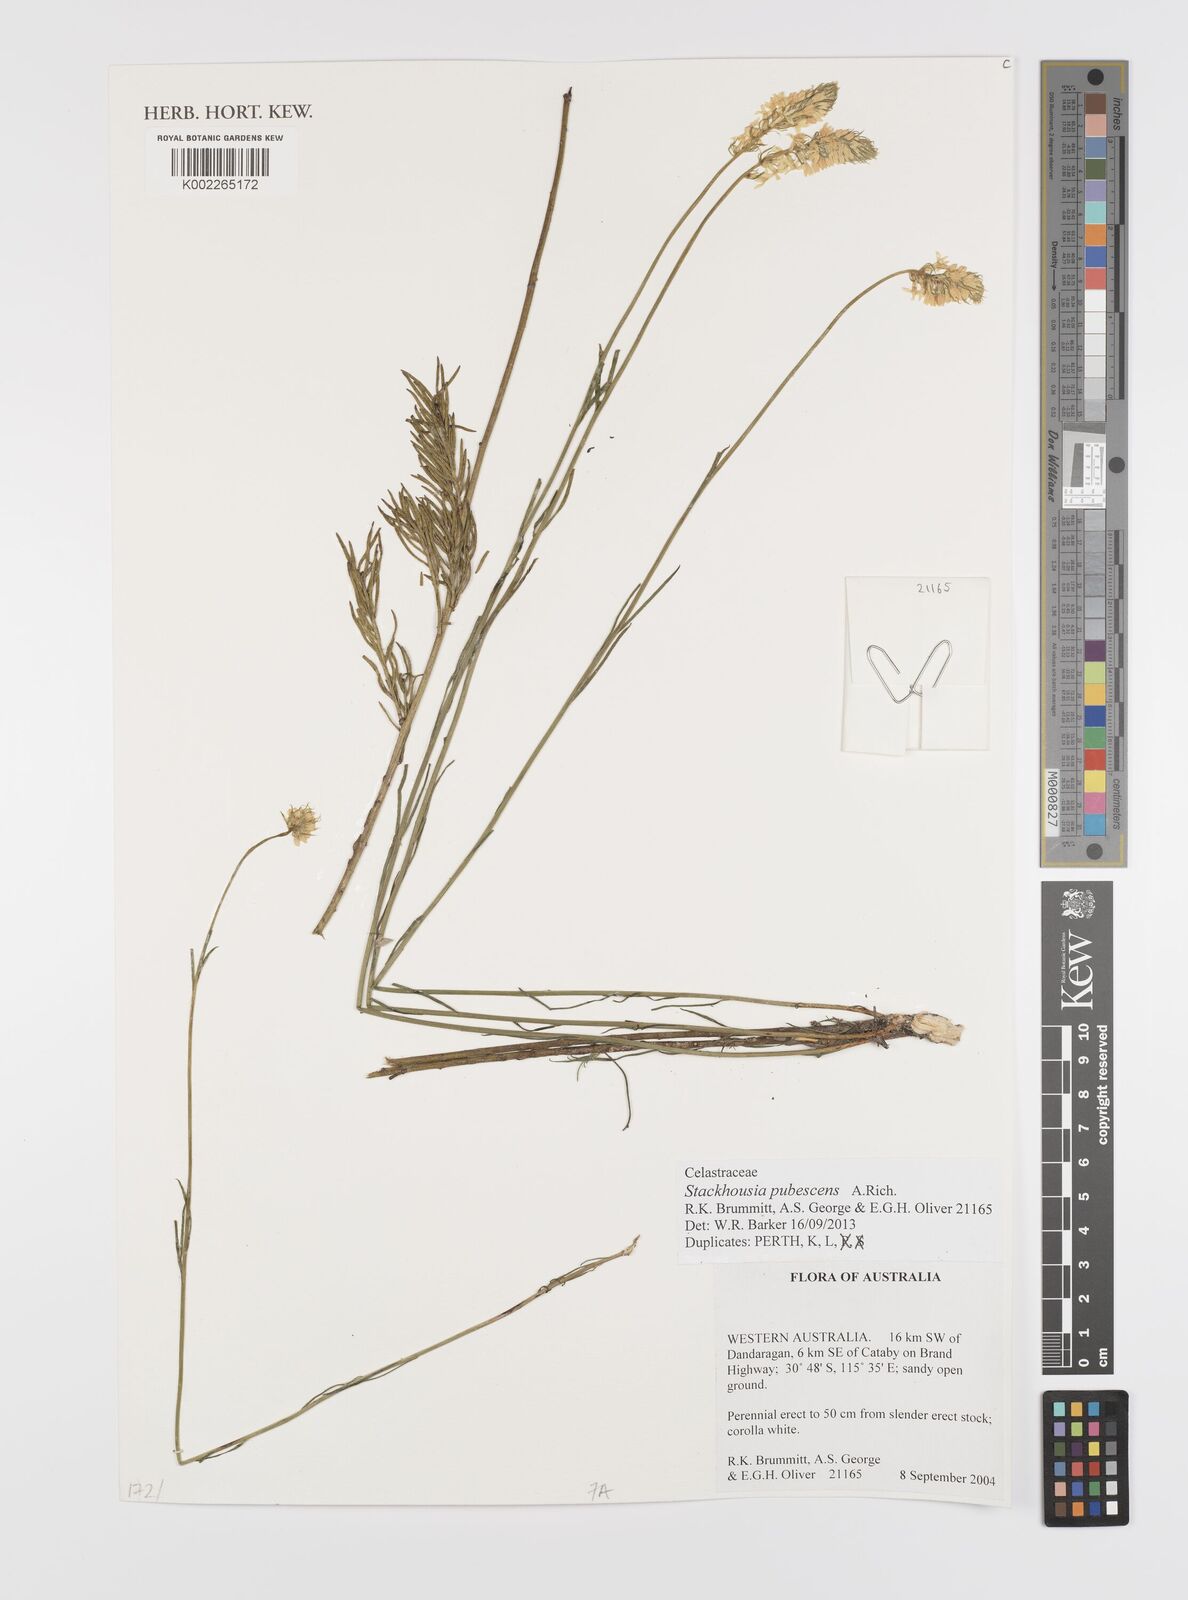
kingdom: Plantae
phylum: Tracheophyta
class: Magnoliopsida
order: Celastrales
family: Celastraceae
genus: Stackhousia
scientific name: Stackhousia monogyna
